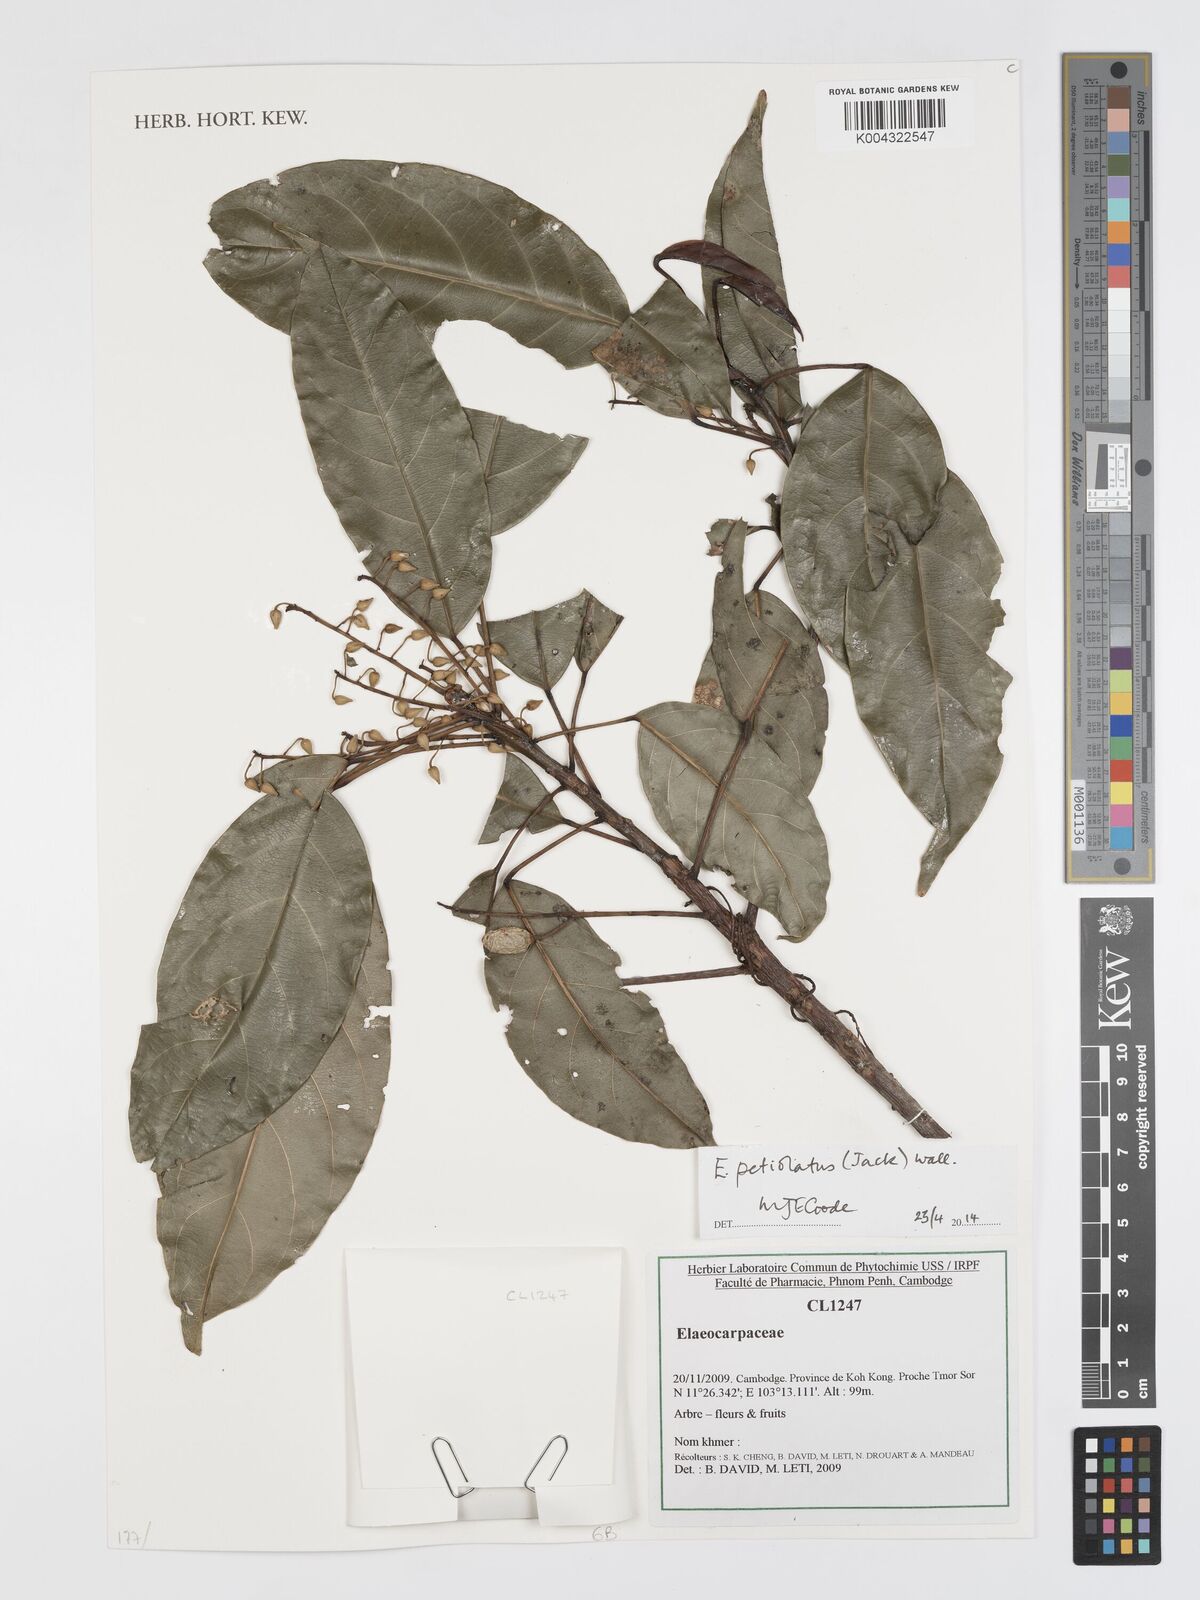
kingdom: Plantae
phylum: Tracheophyta
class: Magnoliopsida
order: Oxalidales
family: Elaeocarpaceae
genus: Elaeocarpus
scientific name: Elaeocarpus petiolatus
